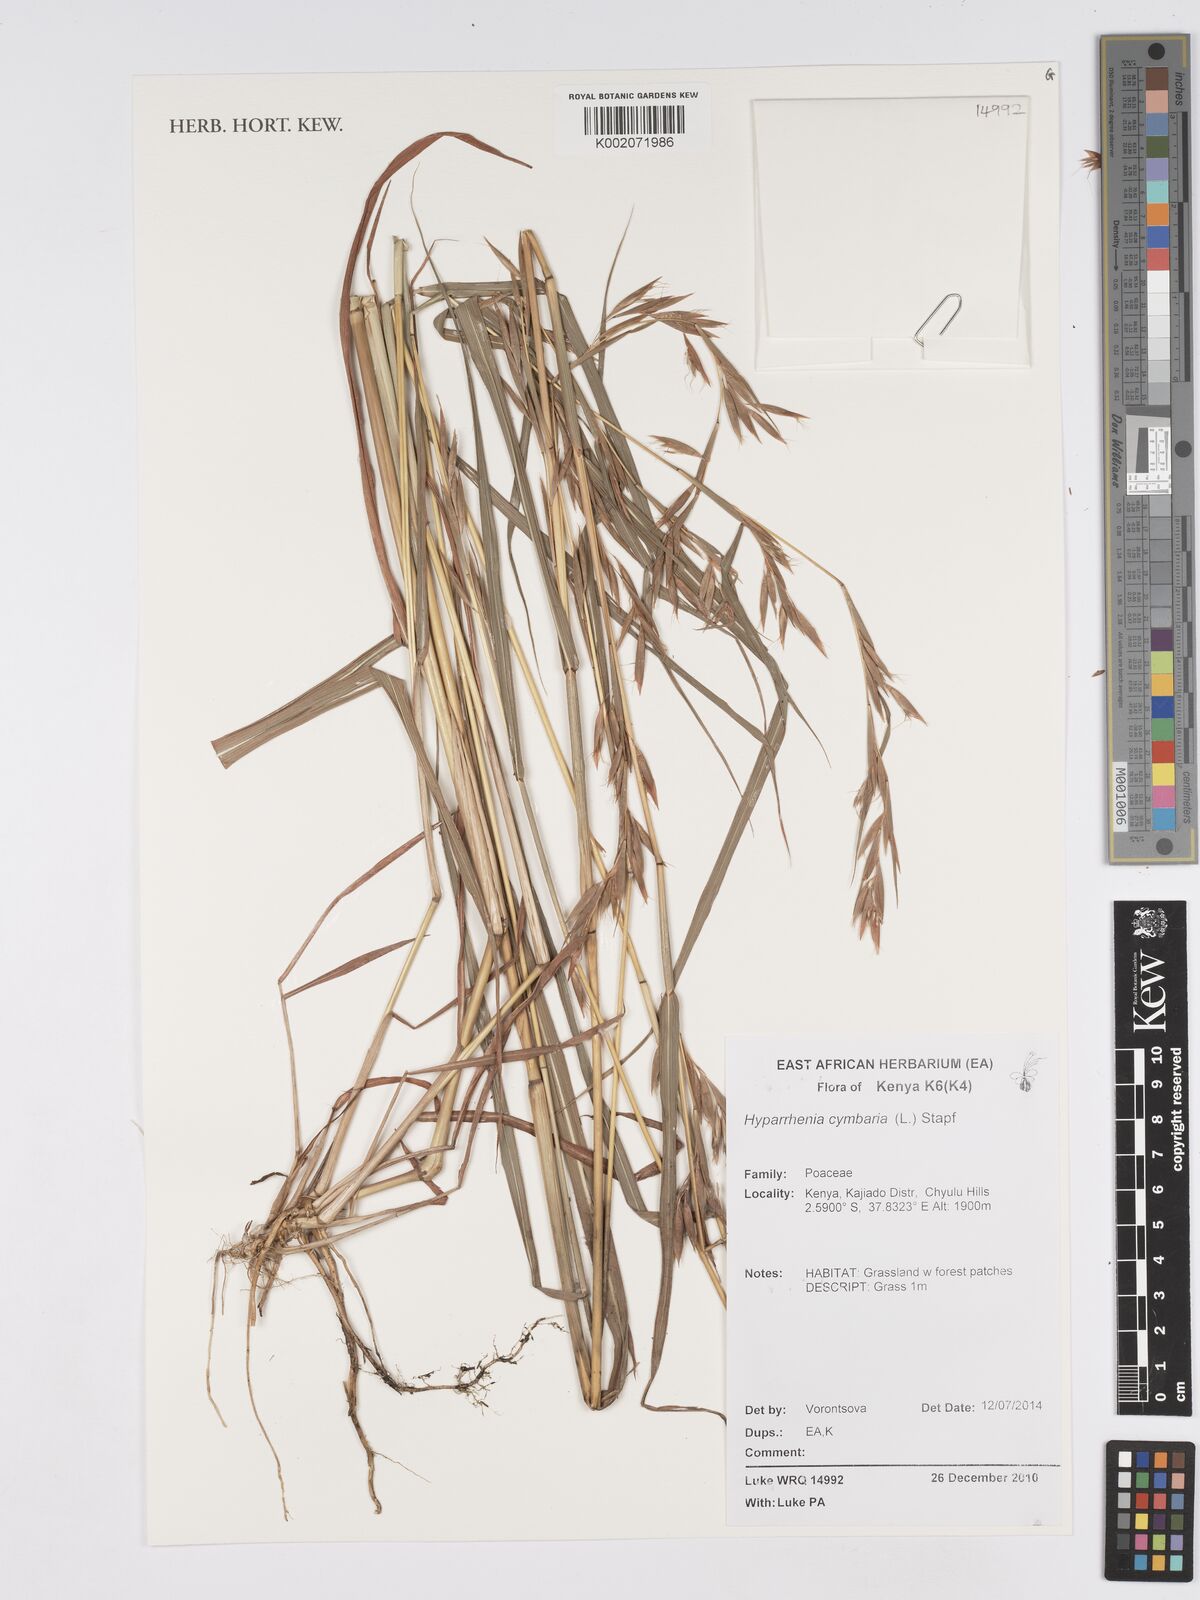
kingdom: Plantae
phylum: Tracheophyta
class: Liliopsida
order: Poales
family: Poaceae
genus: Hyparrhenia
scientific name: Hyparrhenia cymbaria
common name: Boat thatching grass
